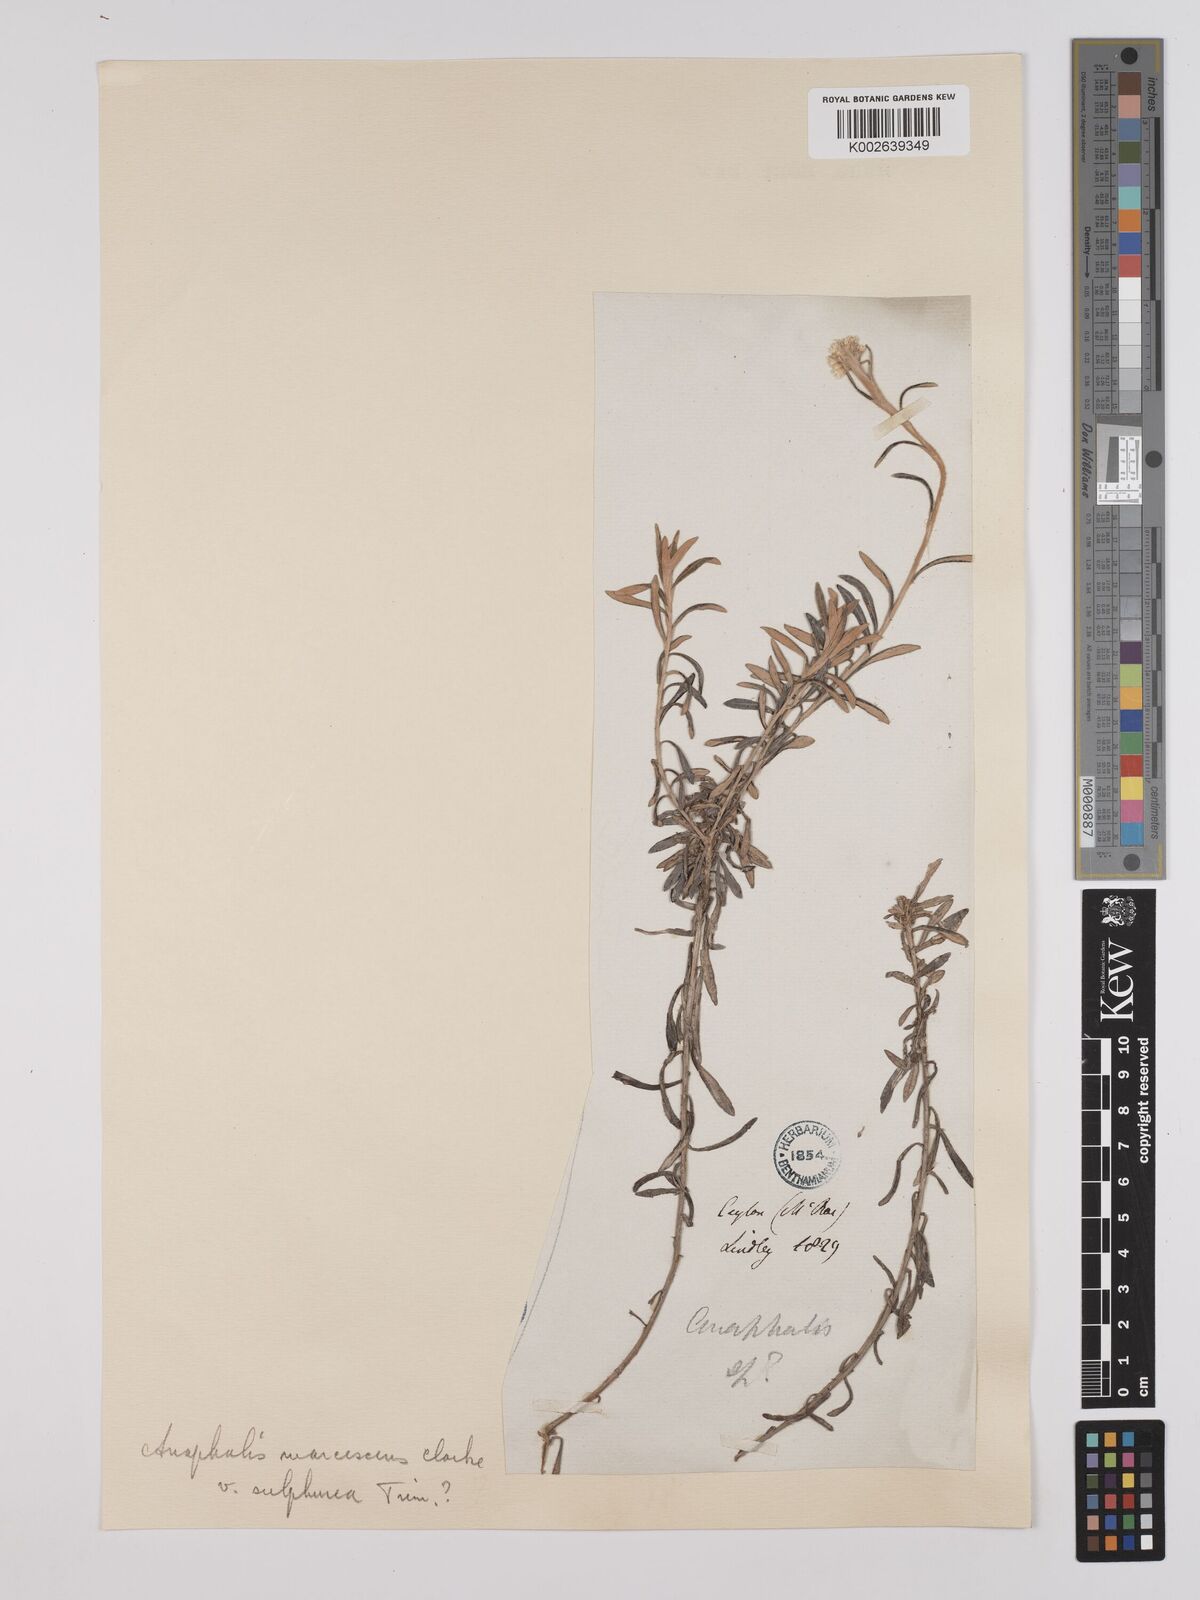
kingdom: Plantae
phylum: Tracheophyta
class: Magnoliopsida
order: Asterales
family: Asteraceae
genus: Anaphalis
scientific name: Anaphalis marcescens
